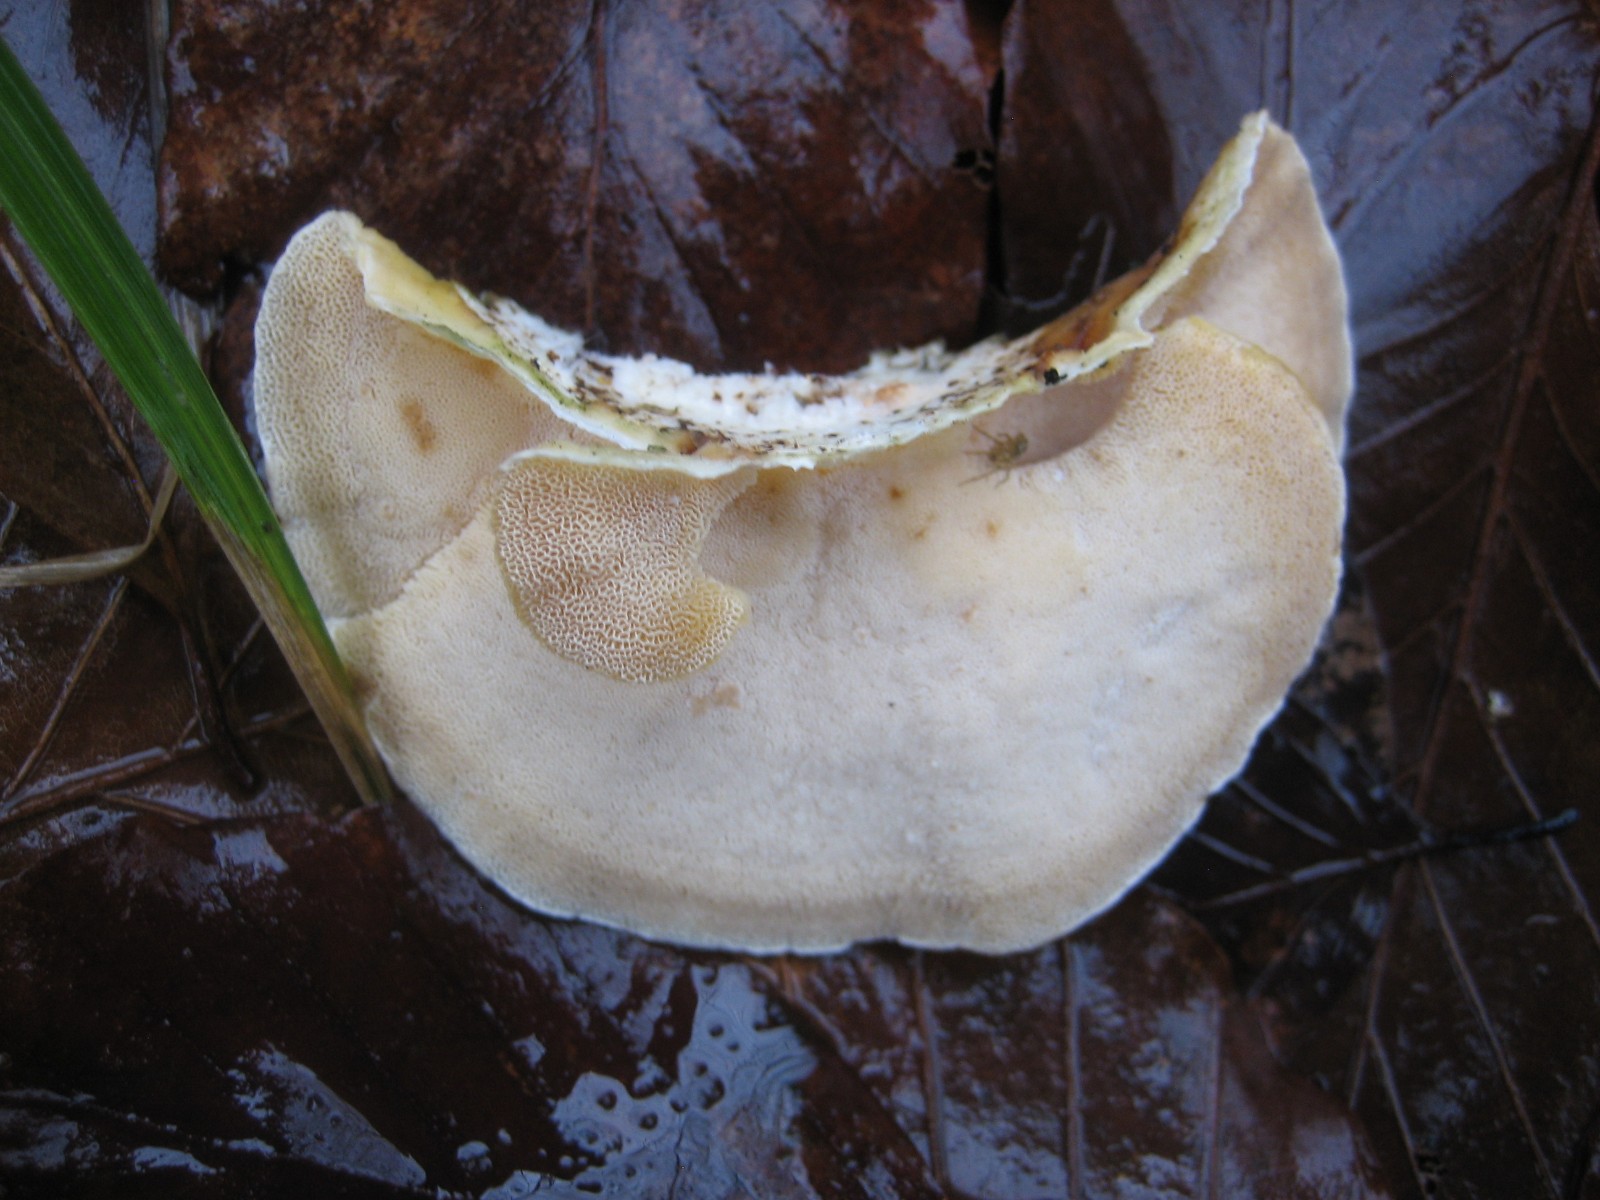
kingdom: Fungi
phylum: Basidiomycota
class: Agaricomycetes
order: Polyporales
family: Polyporaceae
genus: Trametes
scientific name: Trametes
